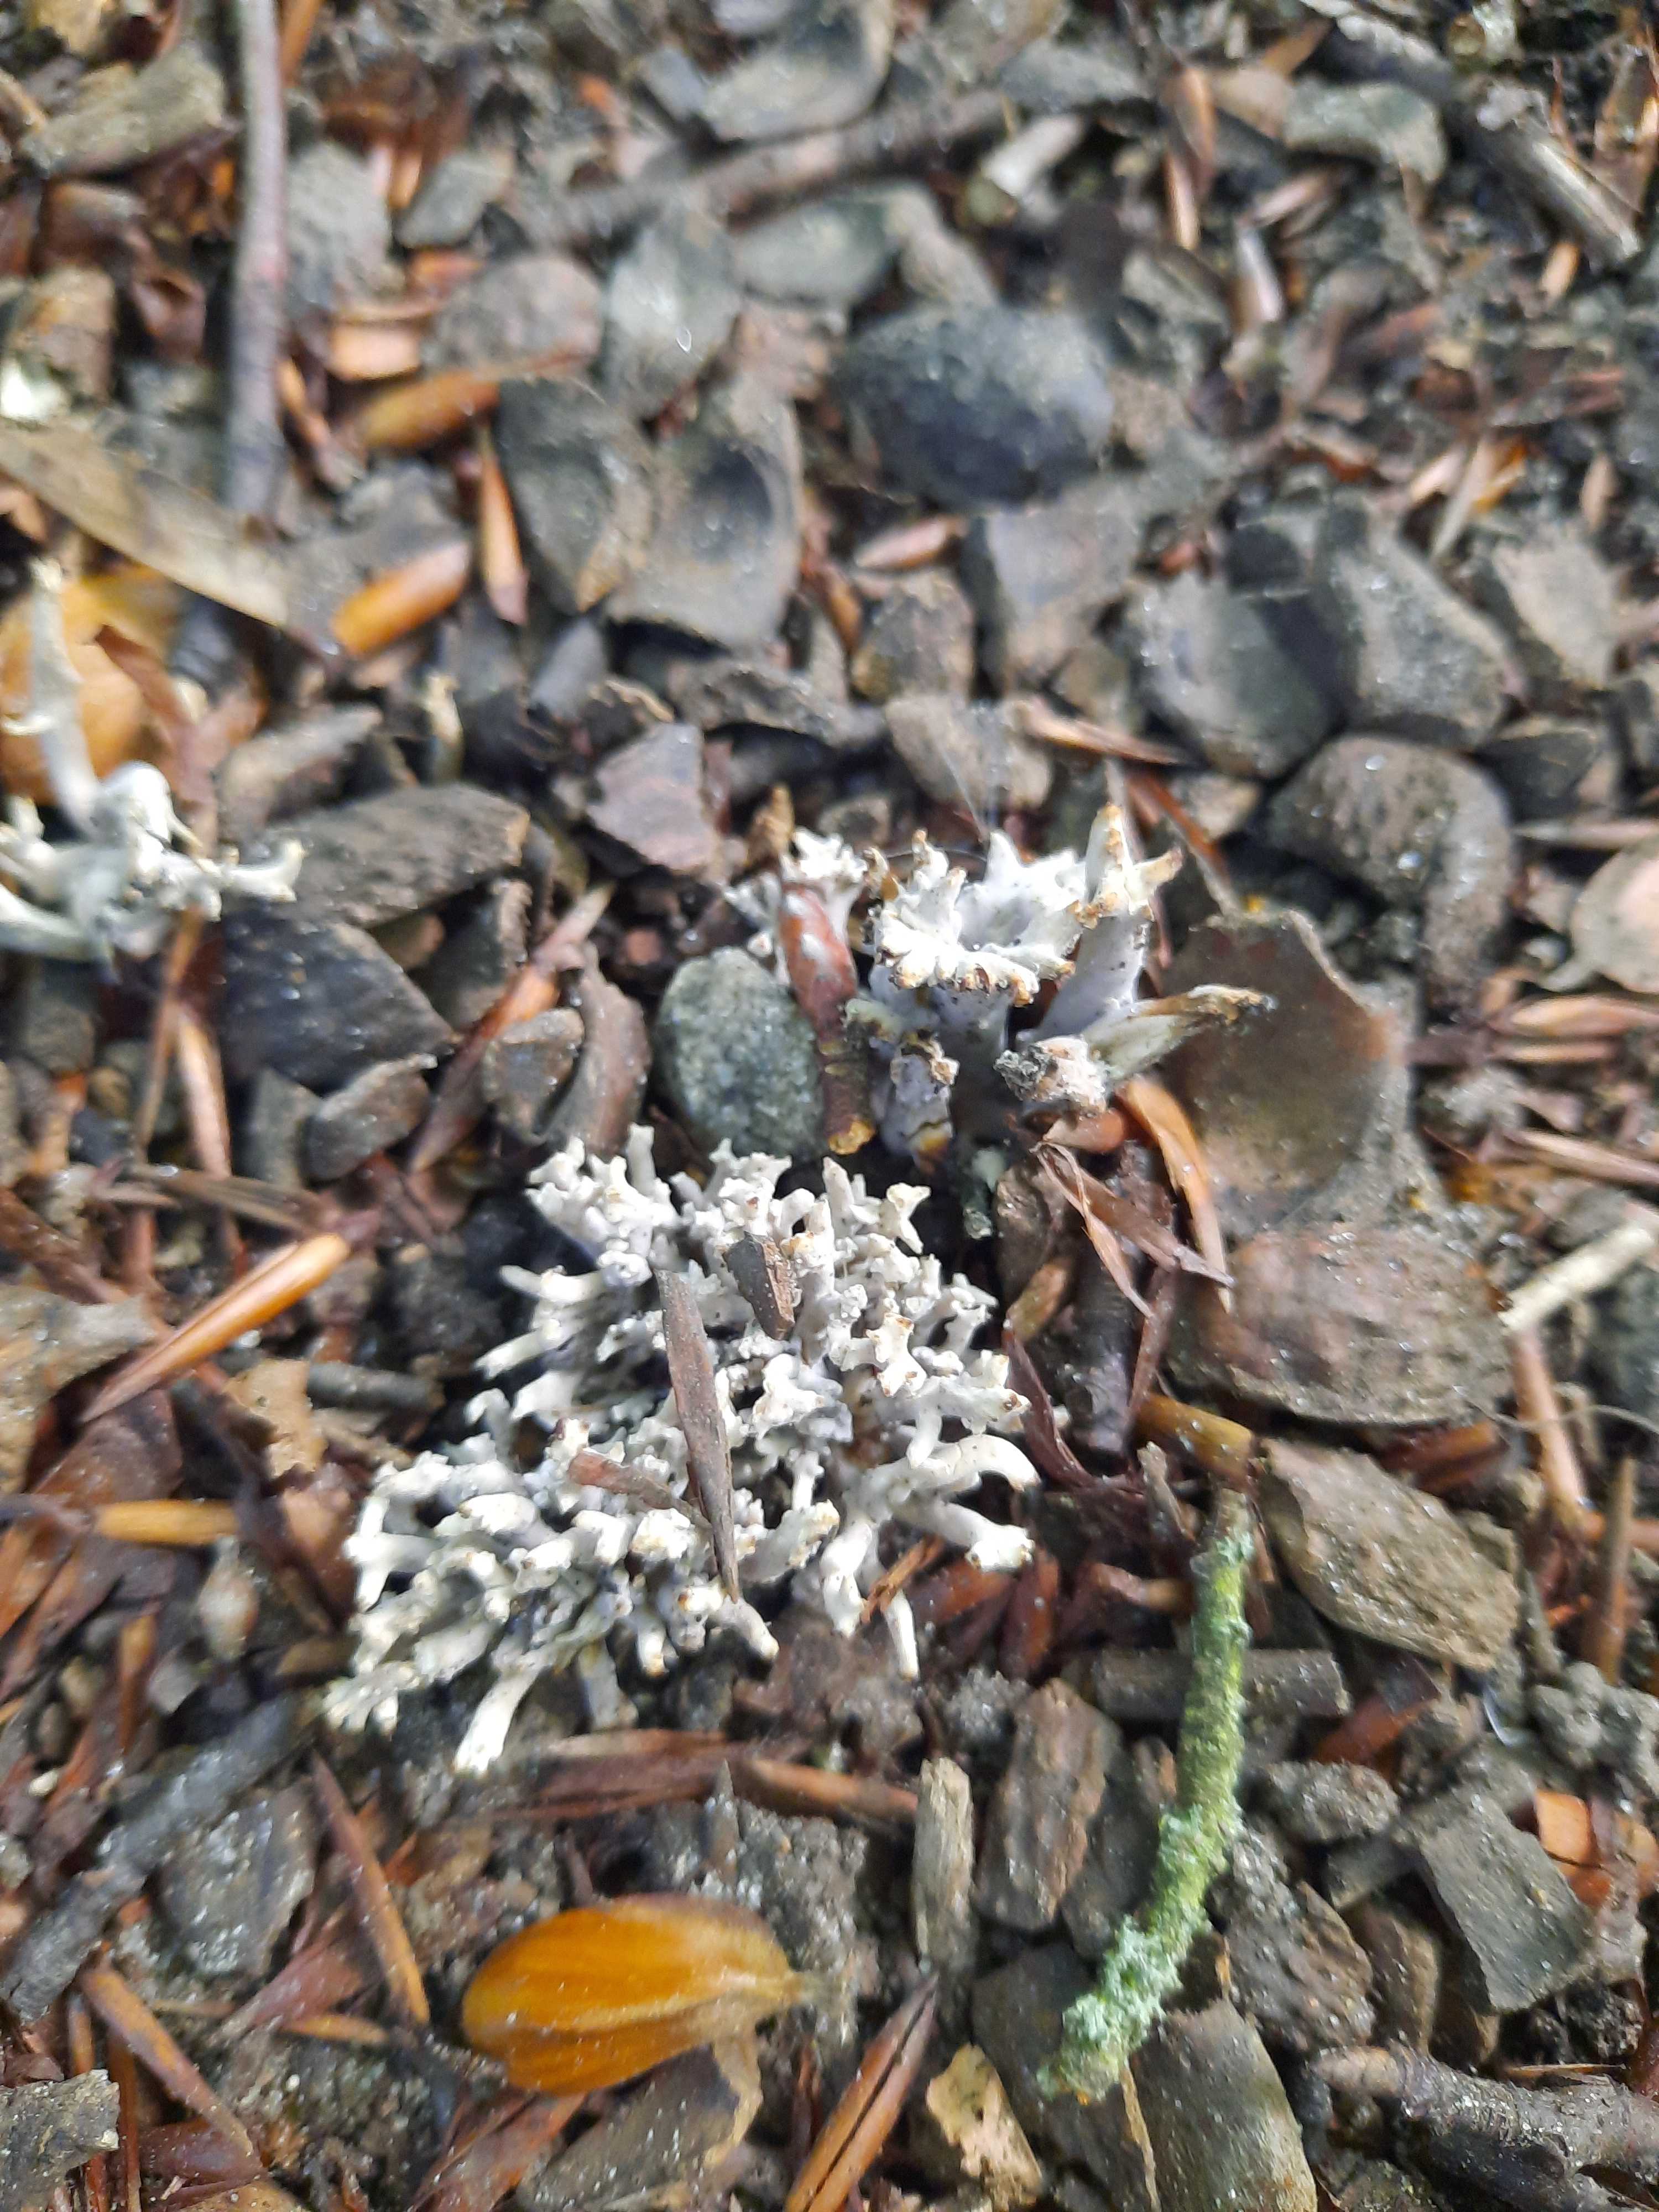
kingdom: Fungi
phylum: Basidiomycota
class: Agaricomycetes
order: Cantharellales
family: Hydnaceae
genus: Clavulina
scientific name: Clavulina
